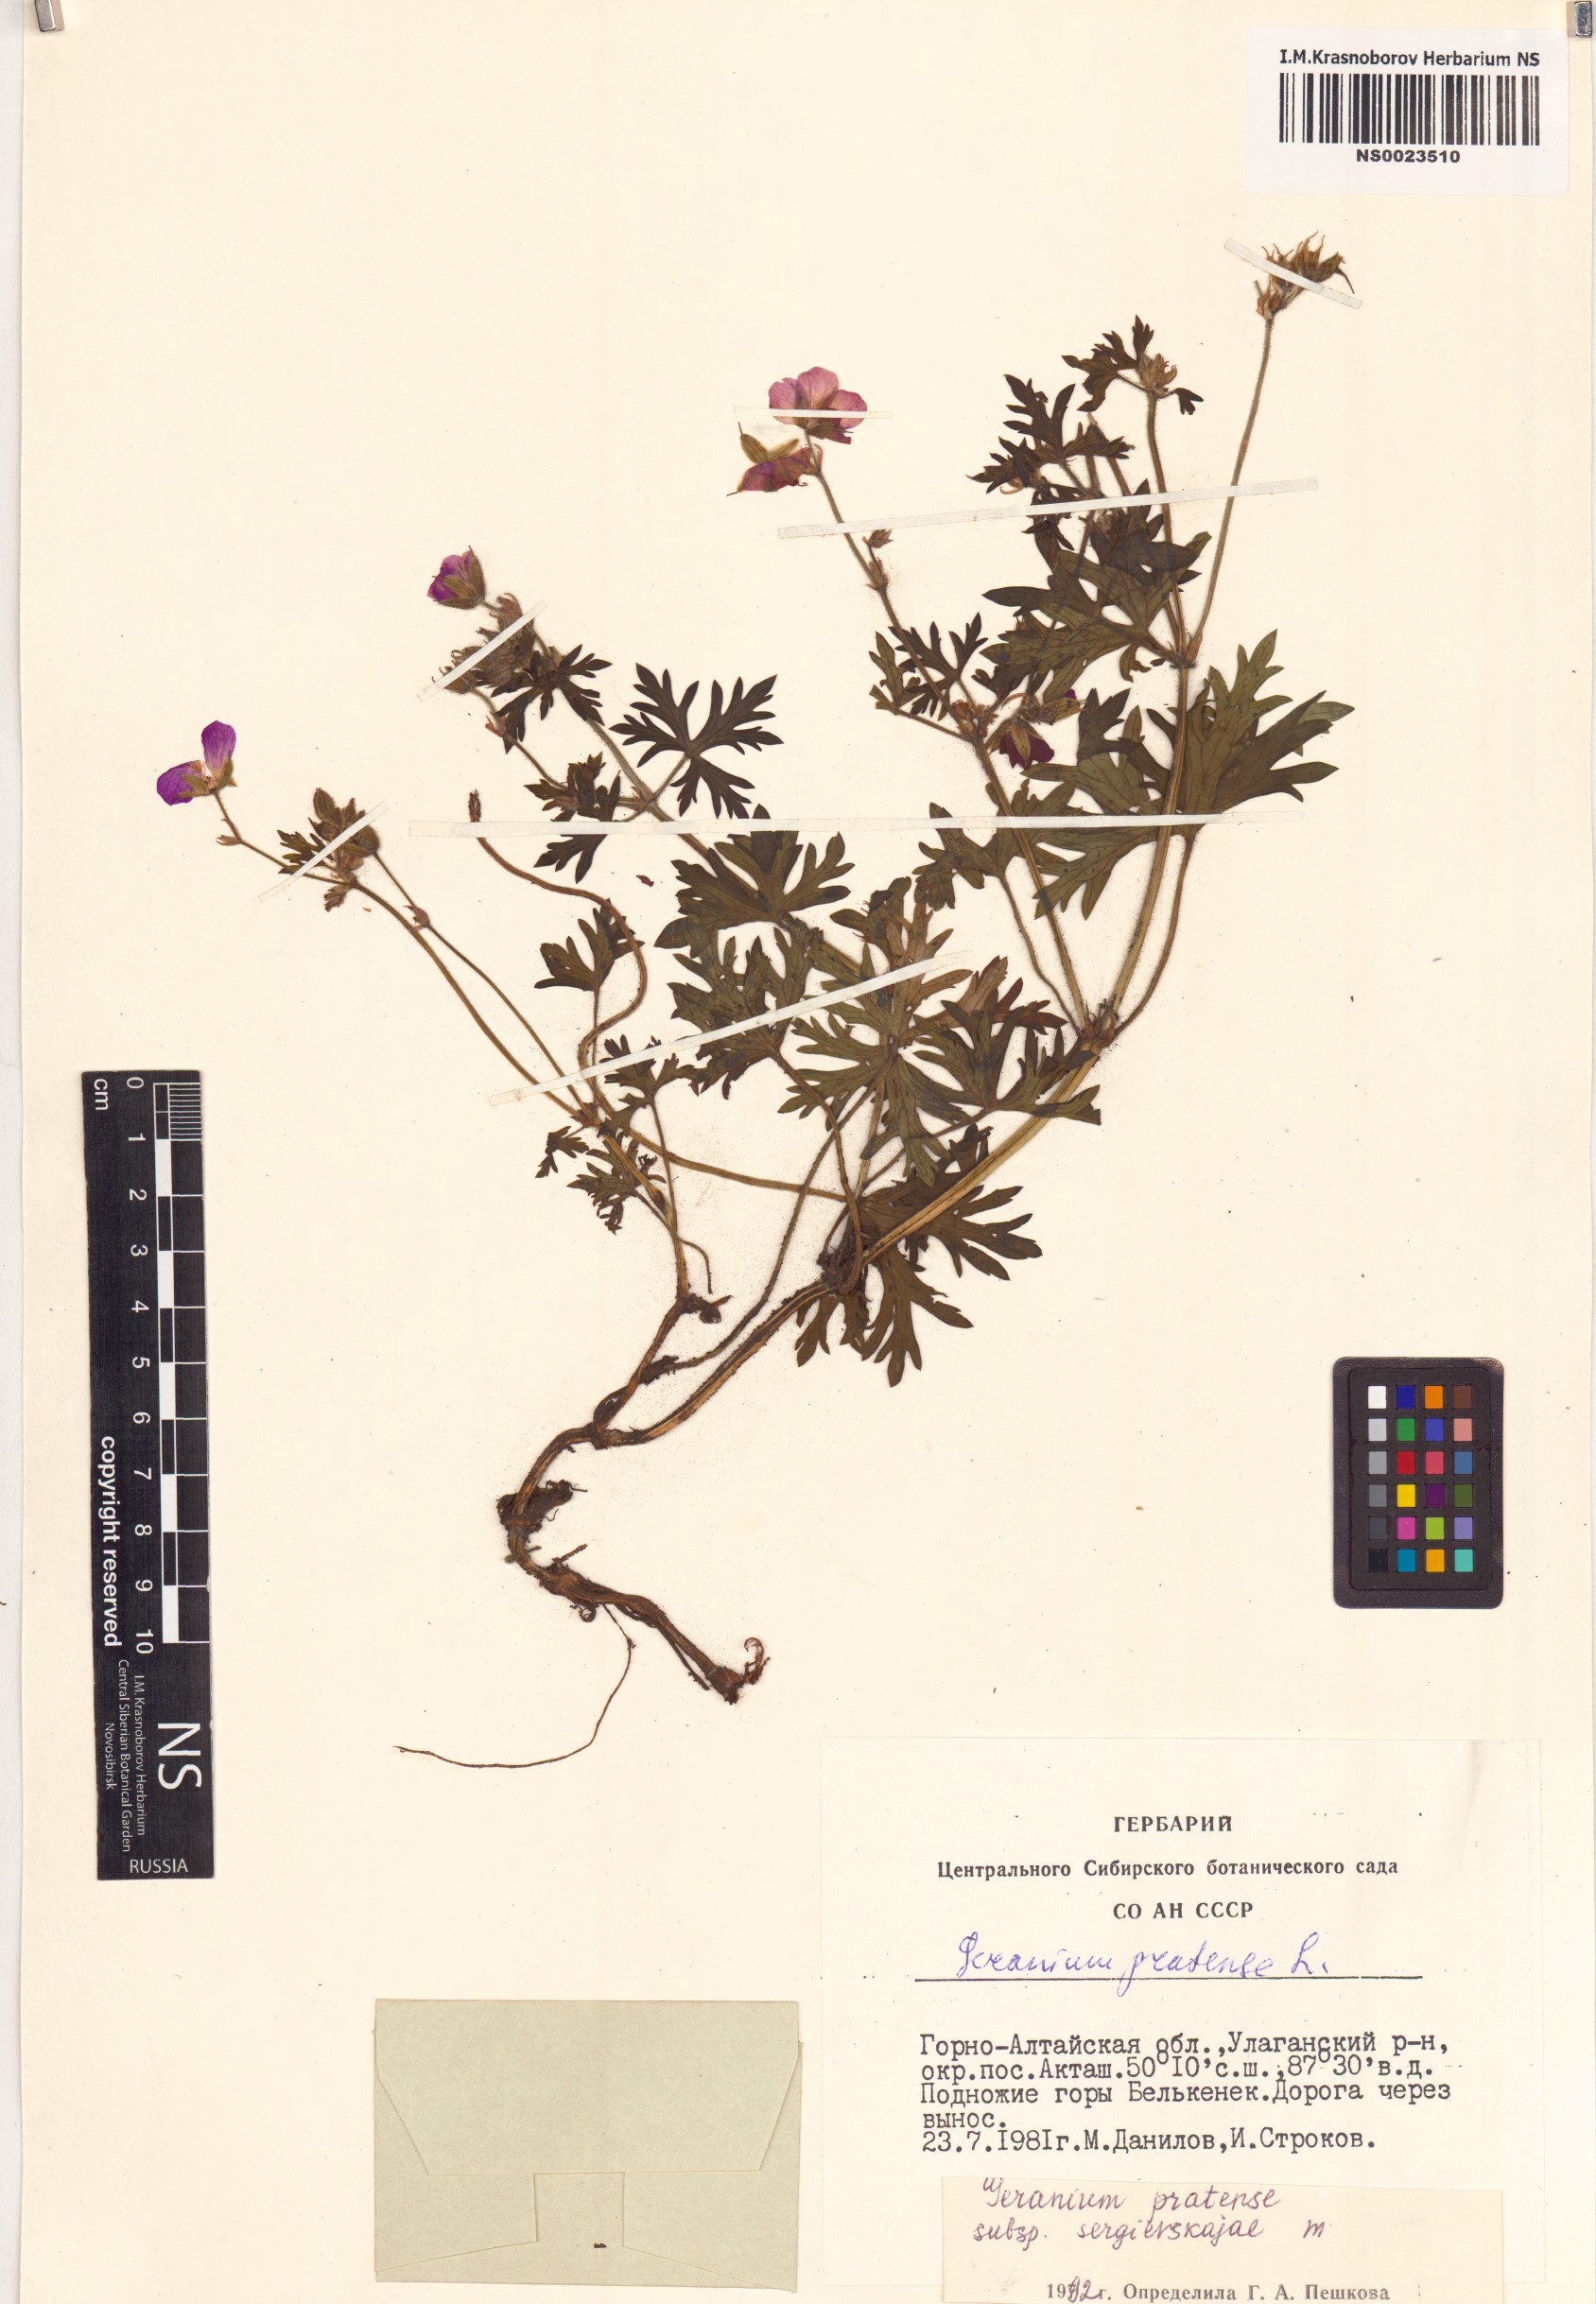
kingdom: Plantae
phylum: Tracheophyta
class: Magnoliopsida
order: Geraniales
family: Geraniaceae
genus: Geranium
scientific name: Geranium pratense
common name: Meadow crane's-bill
